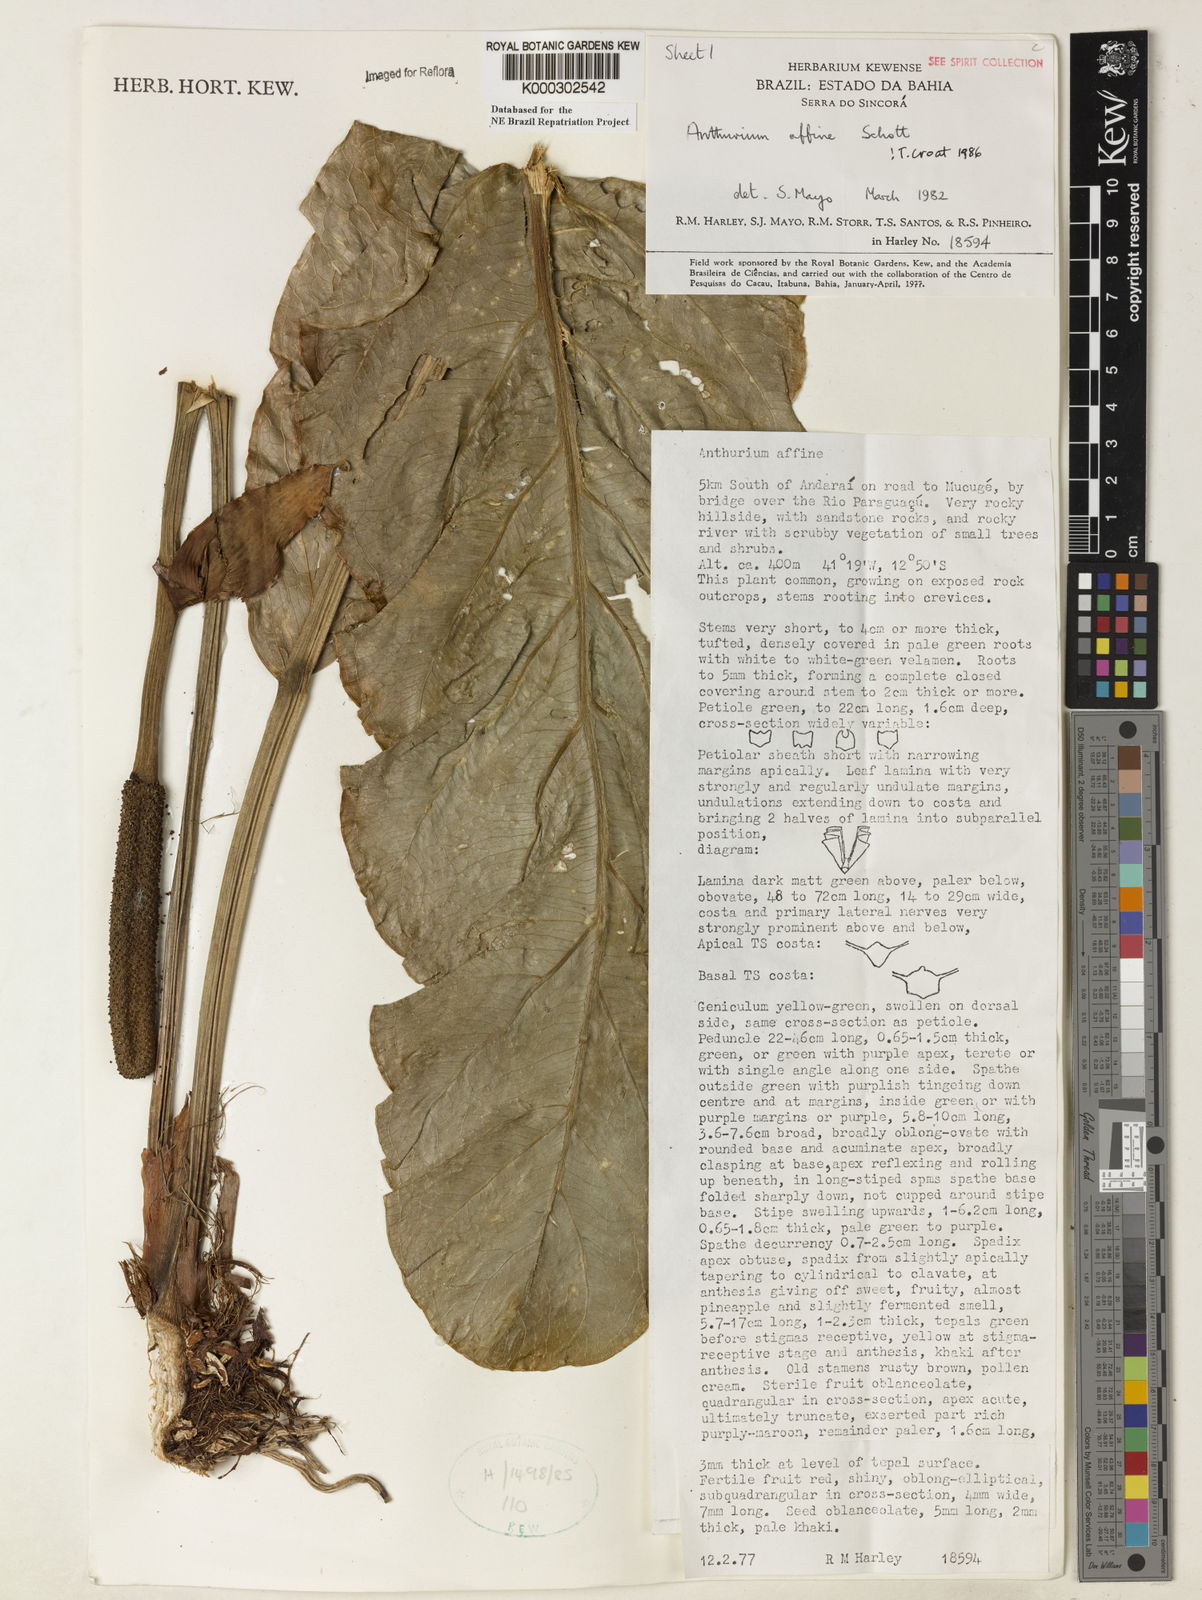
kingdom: Plantae
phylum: Tracheophyta
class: Liliopsida
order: Alismatales
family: Araceae
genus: Anthurium
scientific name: Anthurium affine
